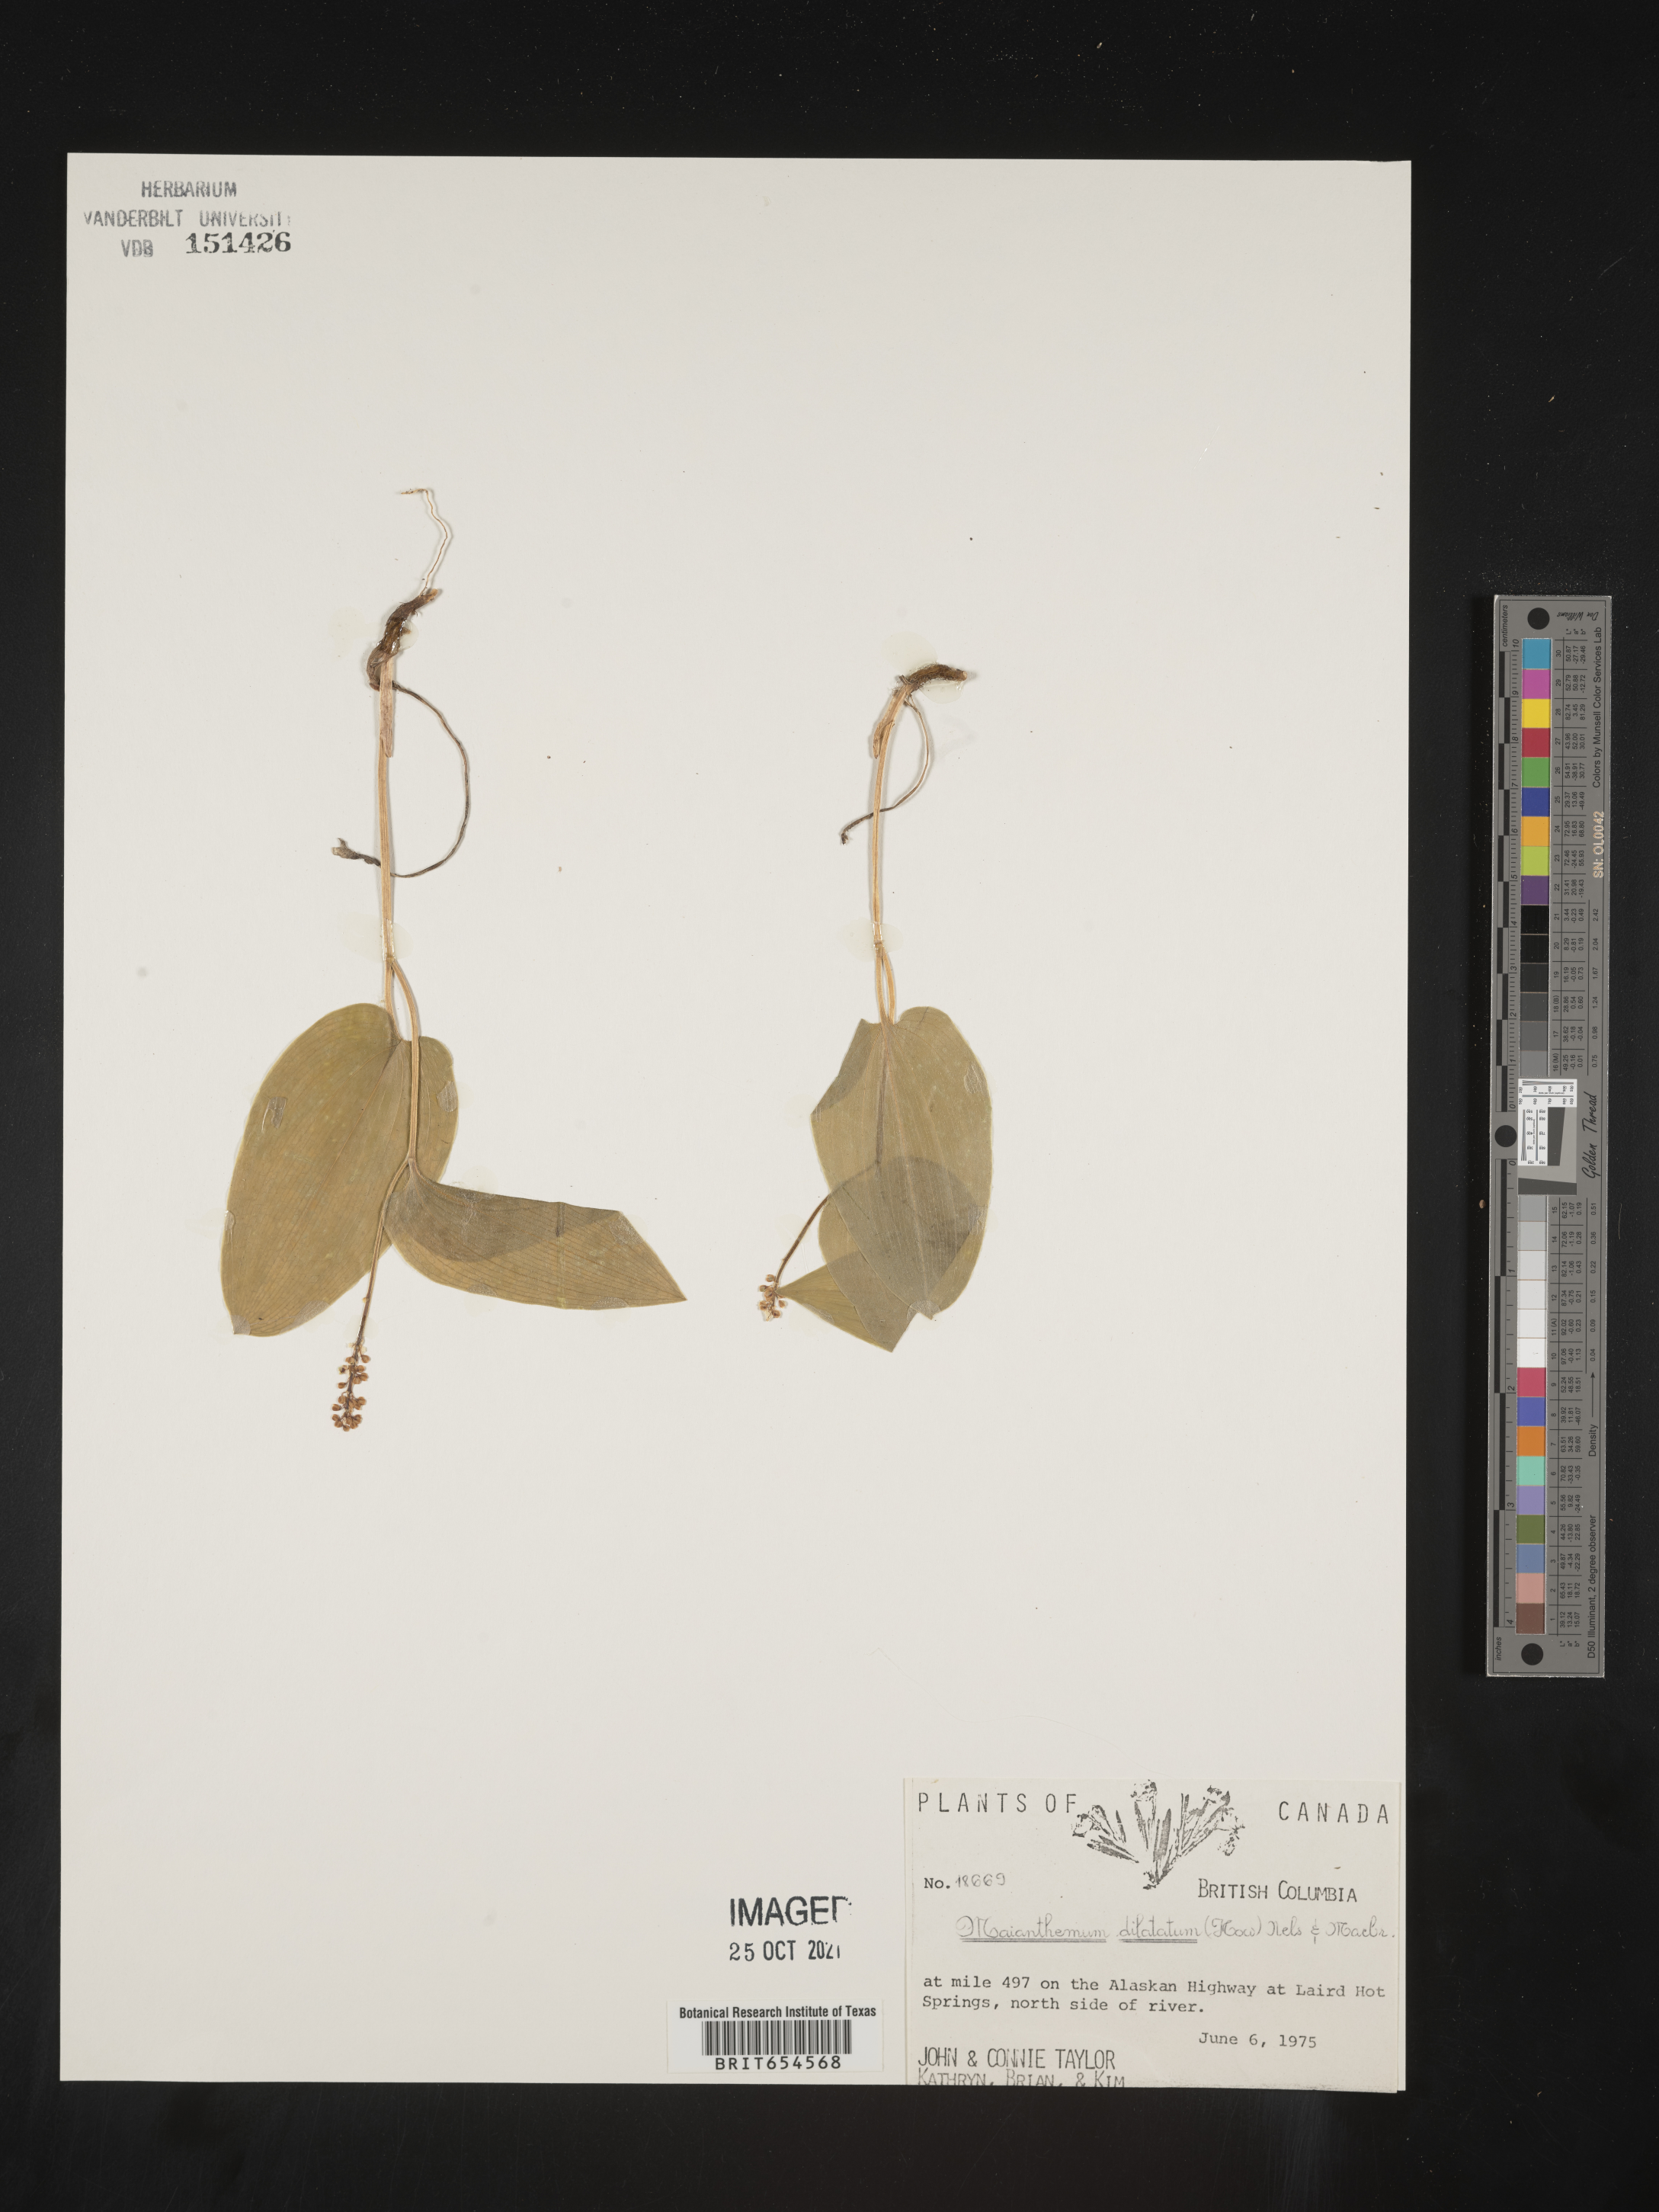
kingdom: Plantae
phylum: Tracheophyta
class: Liliopsida
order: Asparagales
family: Asparagaceae
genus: Maianthemum
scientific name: Maianthemum dilatatum
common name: False lily-of-the-valley
